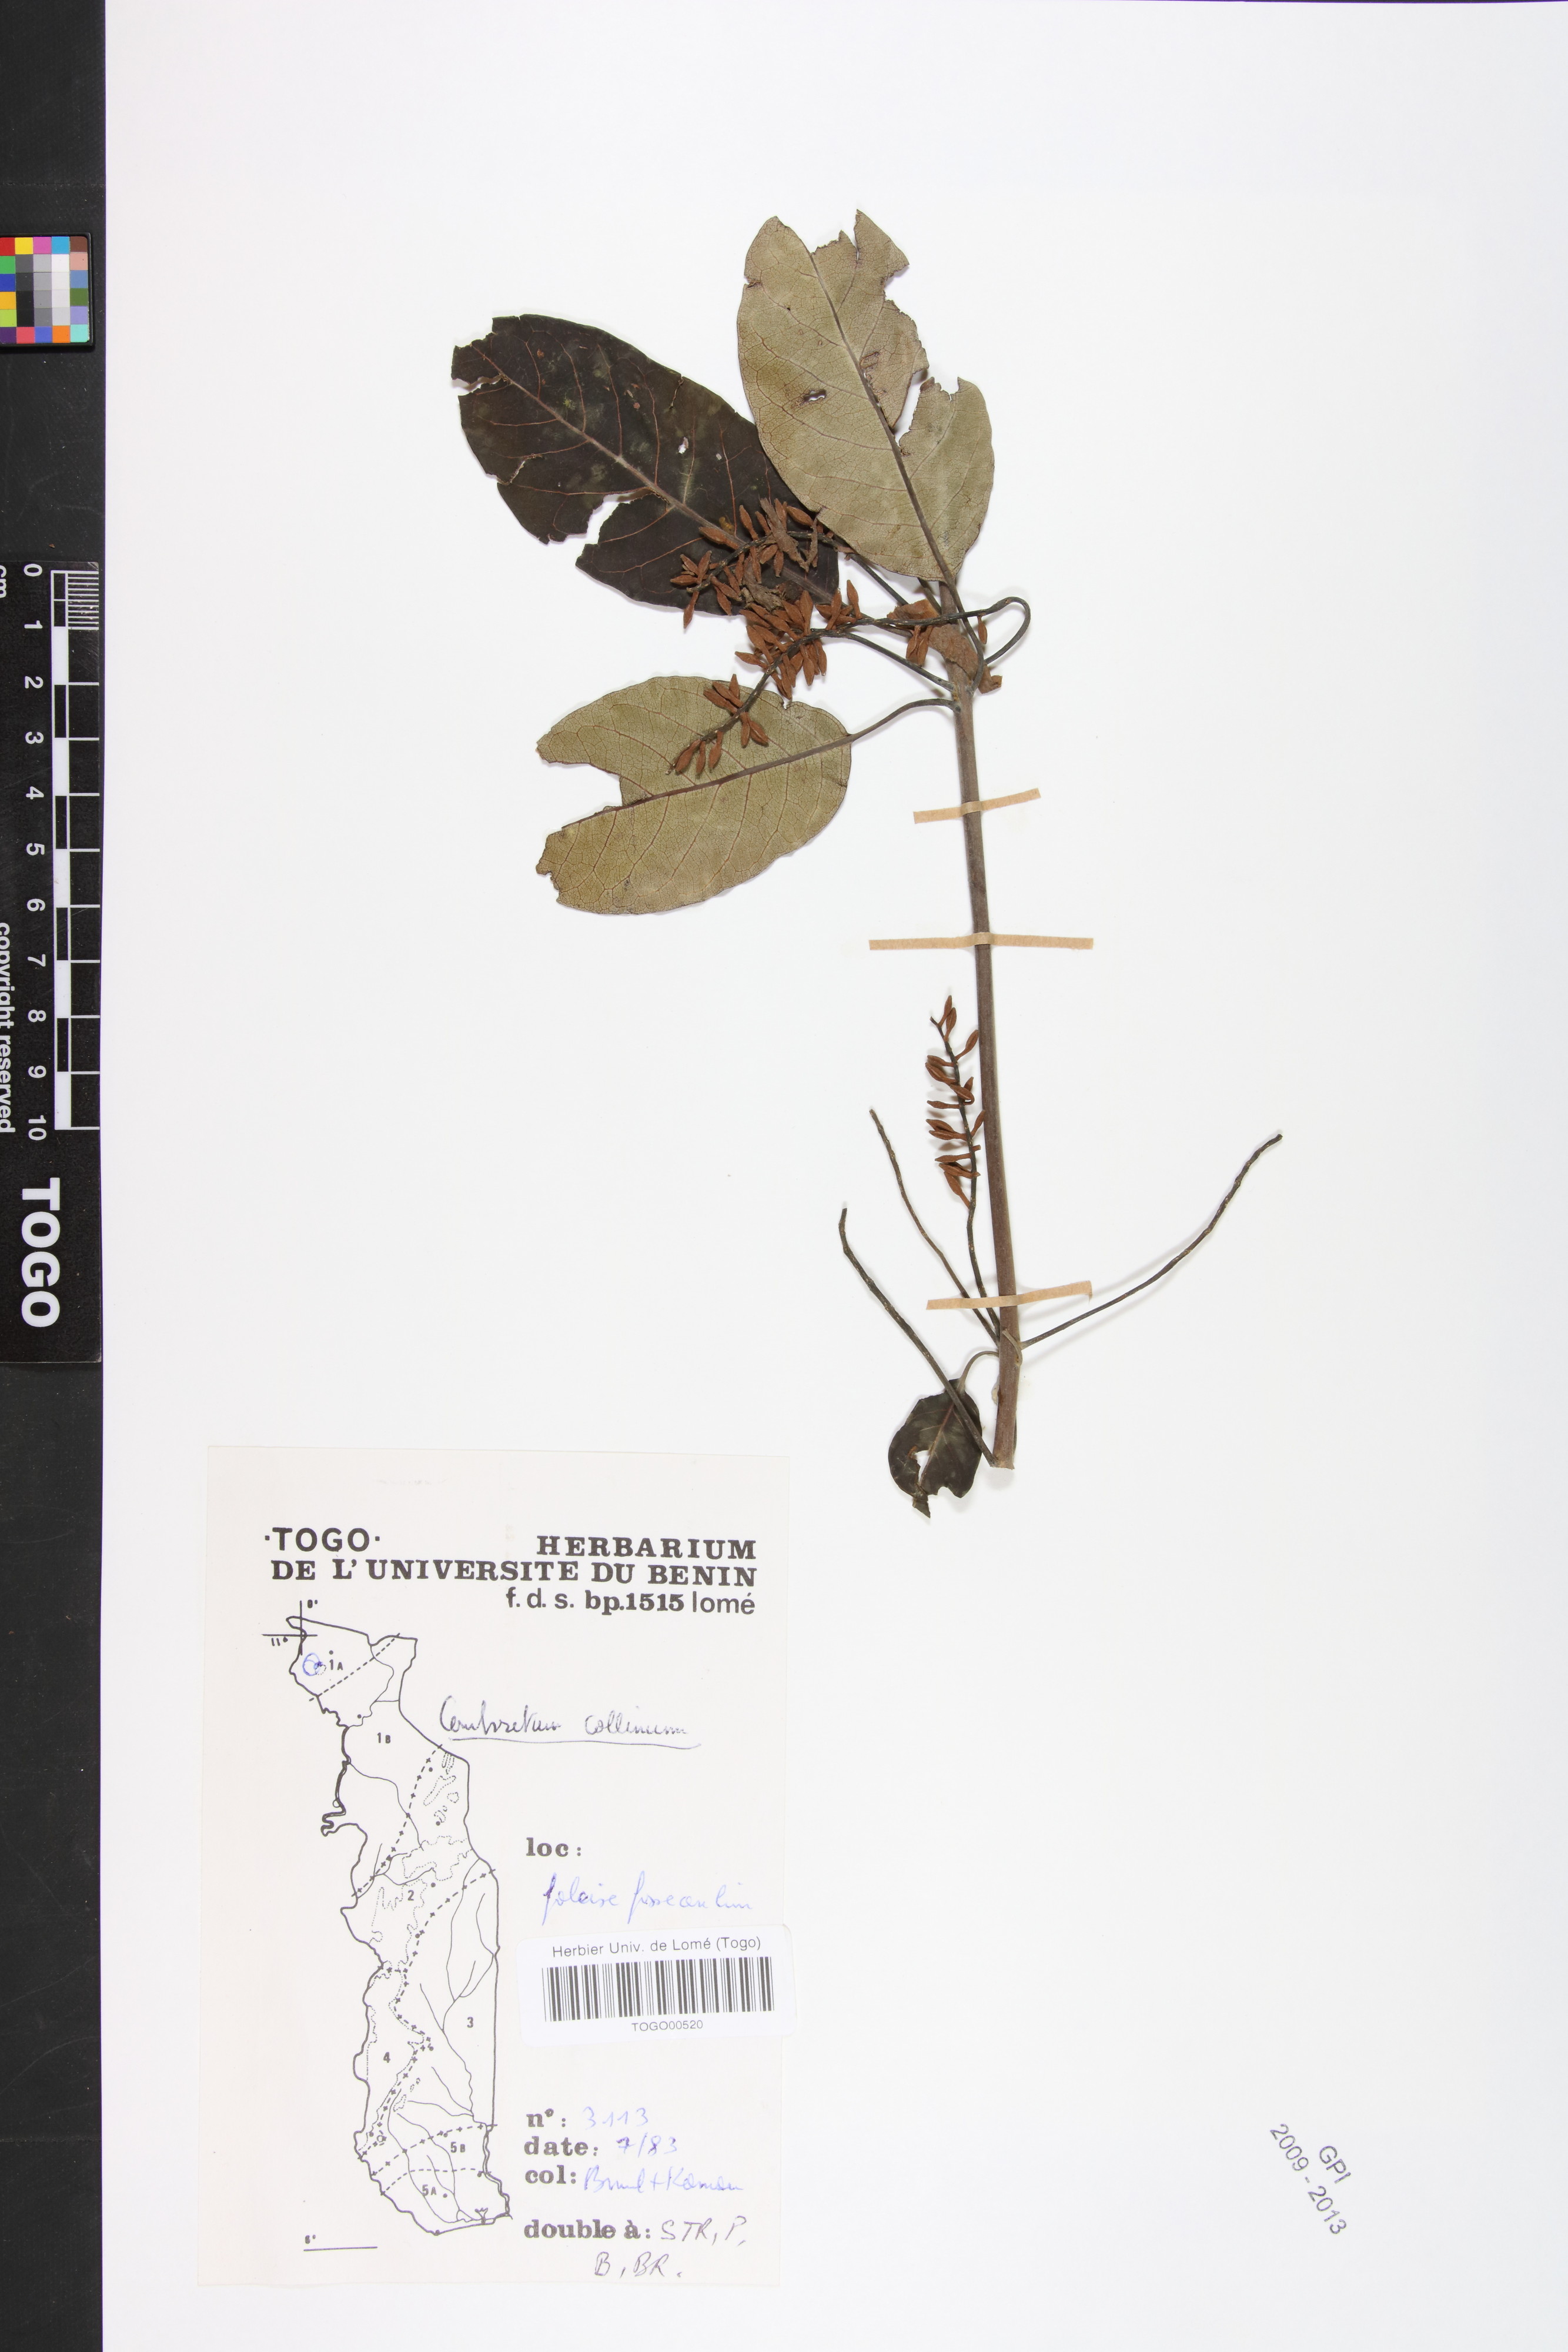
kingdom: Plantae
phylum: Tracheophyta
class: Magnoliopsida
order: Myrtales
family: Combretaceae
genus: Combretum
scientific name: Combretum collinum
